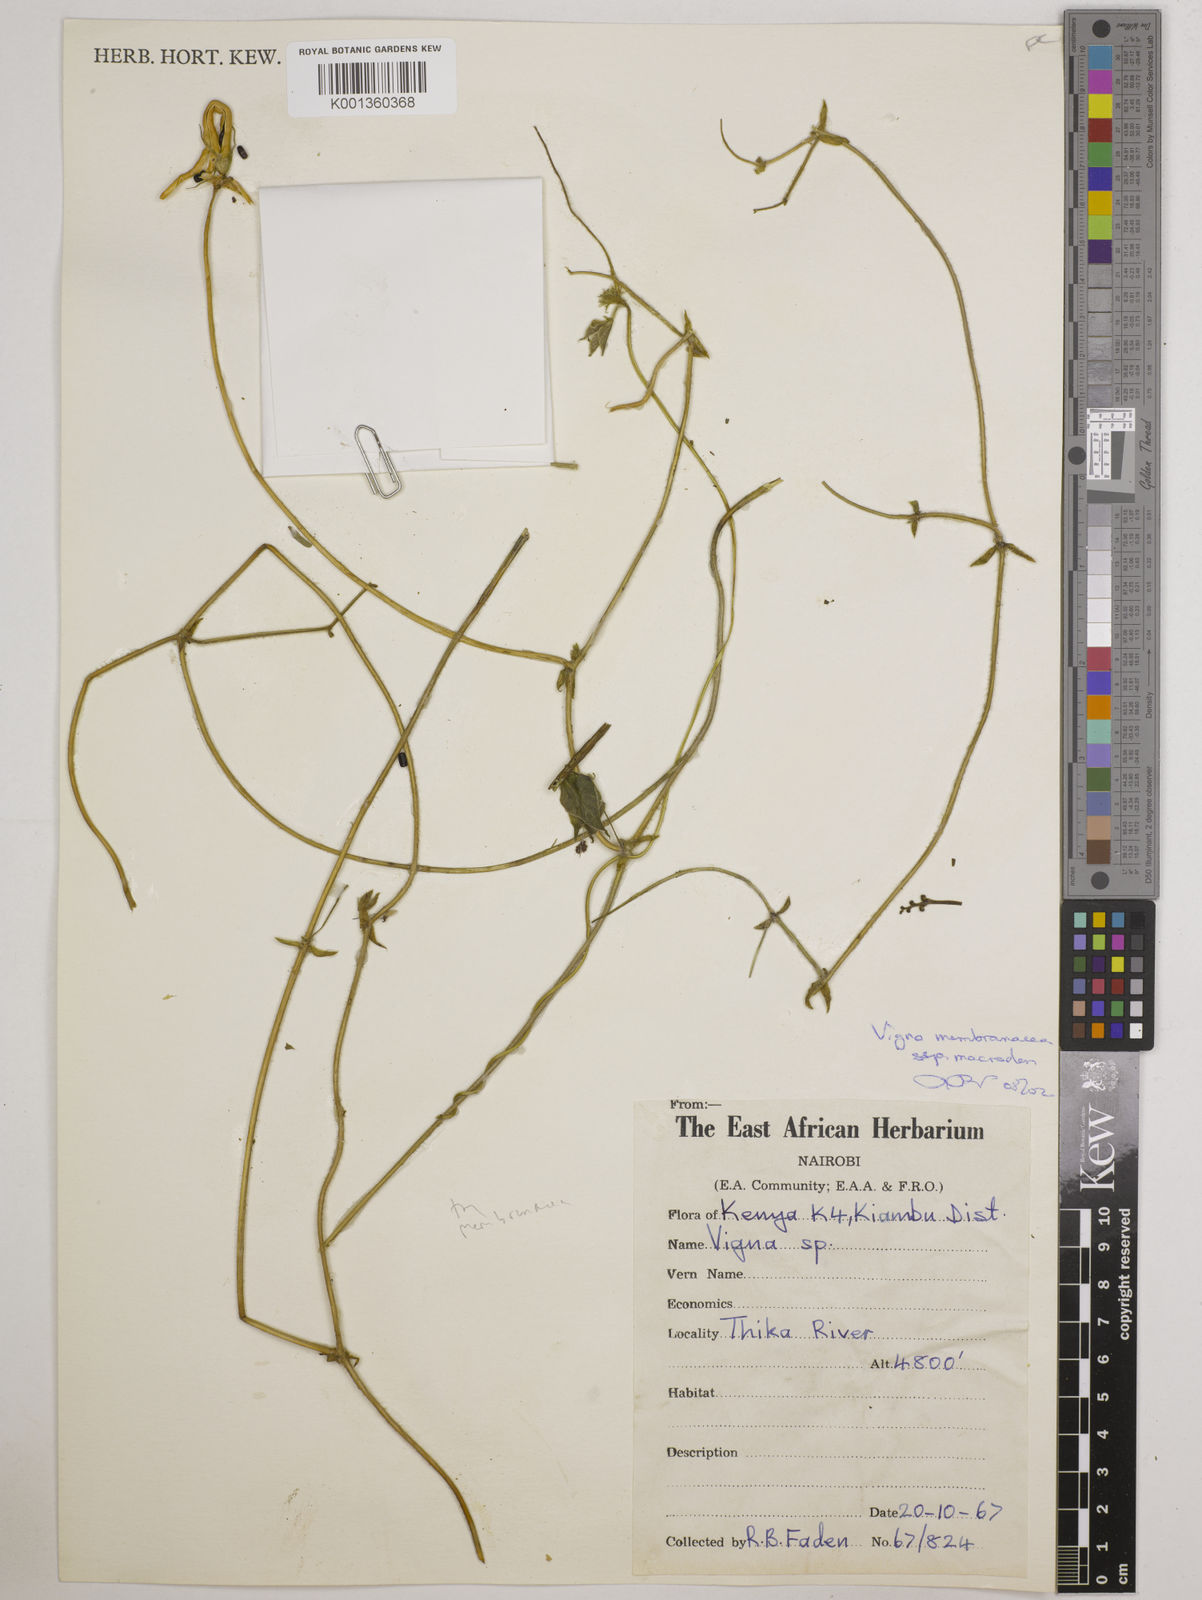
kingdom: Plantae
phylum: Tracheophyta
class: Magnoliopsida
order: Fabales
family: Fabaceae
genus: Vigna
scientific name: Vigna
